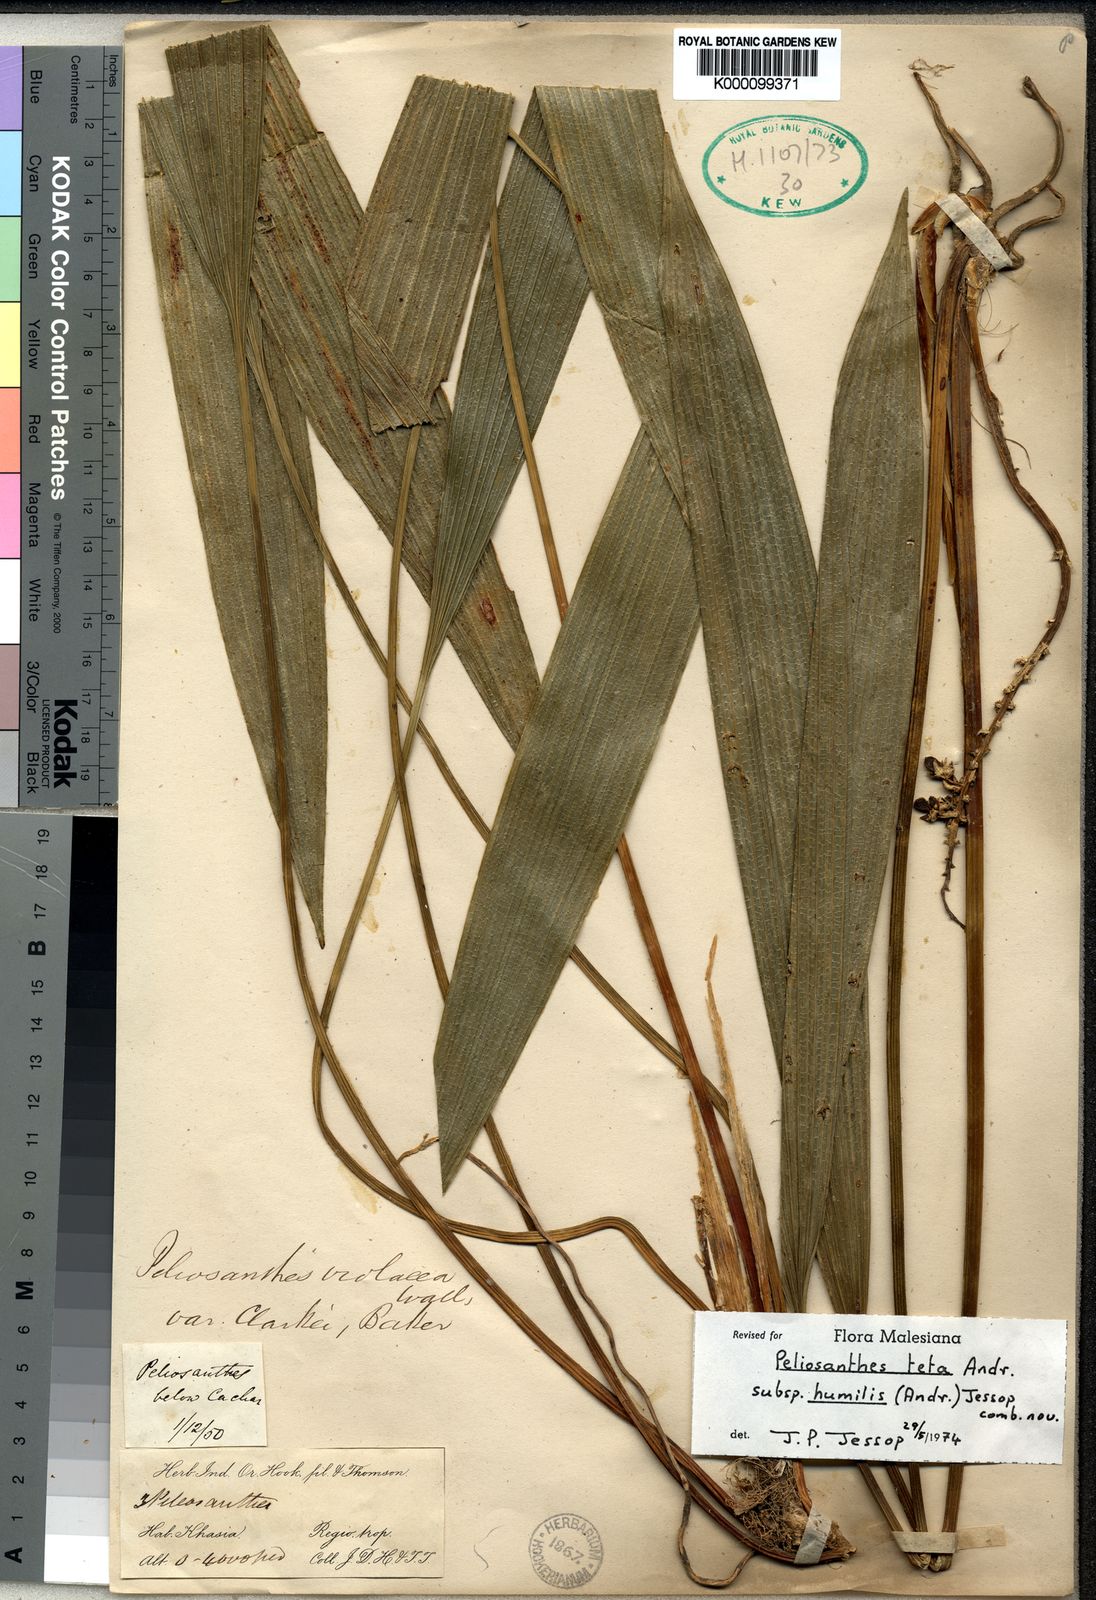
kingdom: Plantae
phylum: Tracheophyta
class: Liliopsida
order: Asparagales
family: Asparagaceae
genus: Peliosanthes
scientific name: Peliosanthes teta
